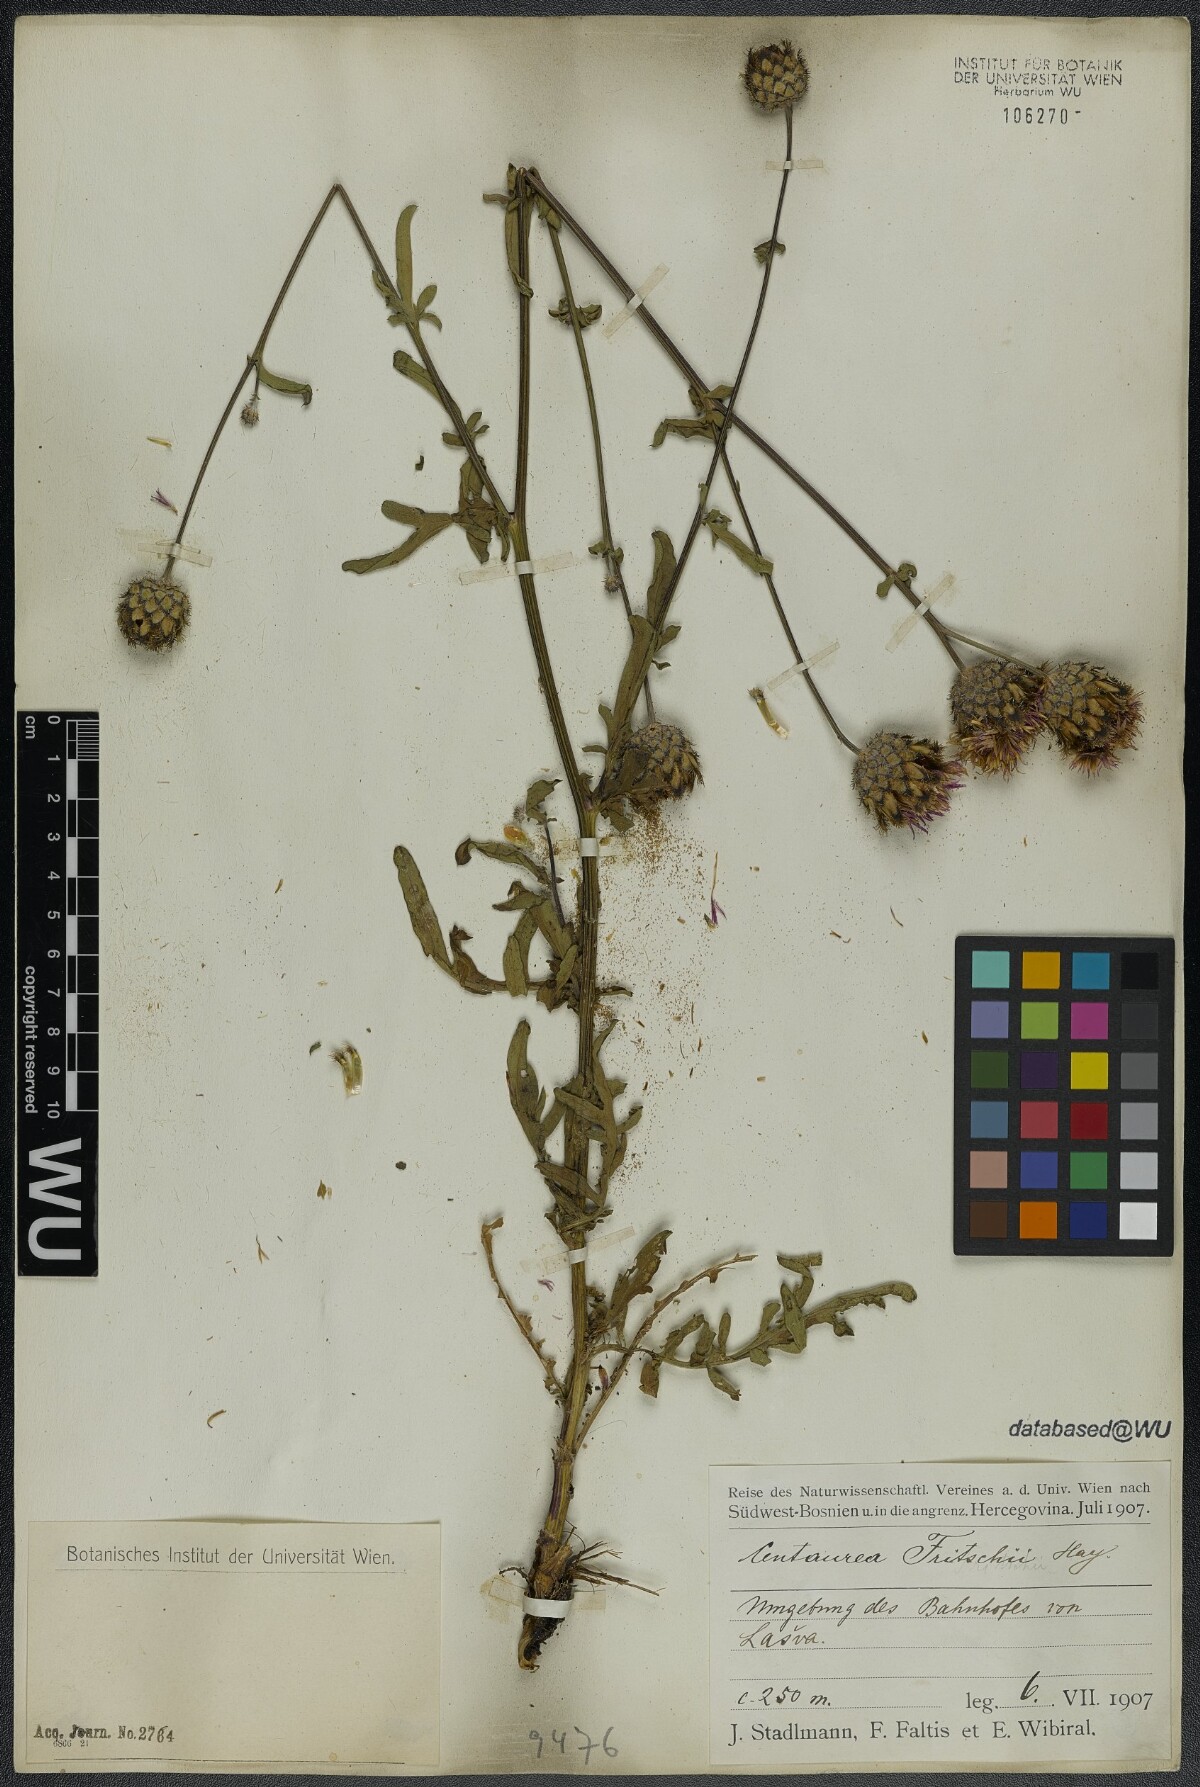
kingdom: Plantae
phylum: Tracheophyta
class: Magnoliopsida
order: Asterales
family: Asteraceae
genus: Centaurea
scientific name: Centaurea scabiosa
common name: Greater knapweed
